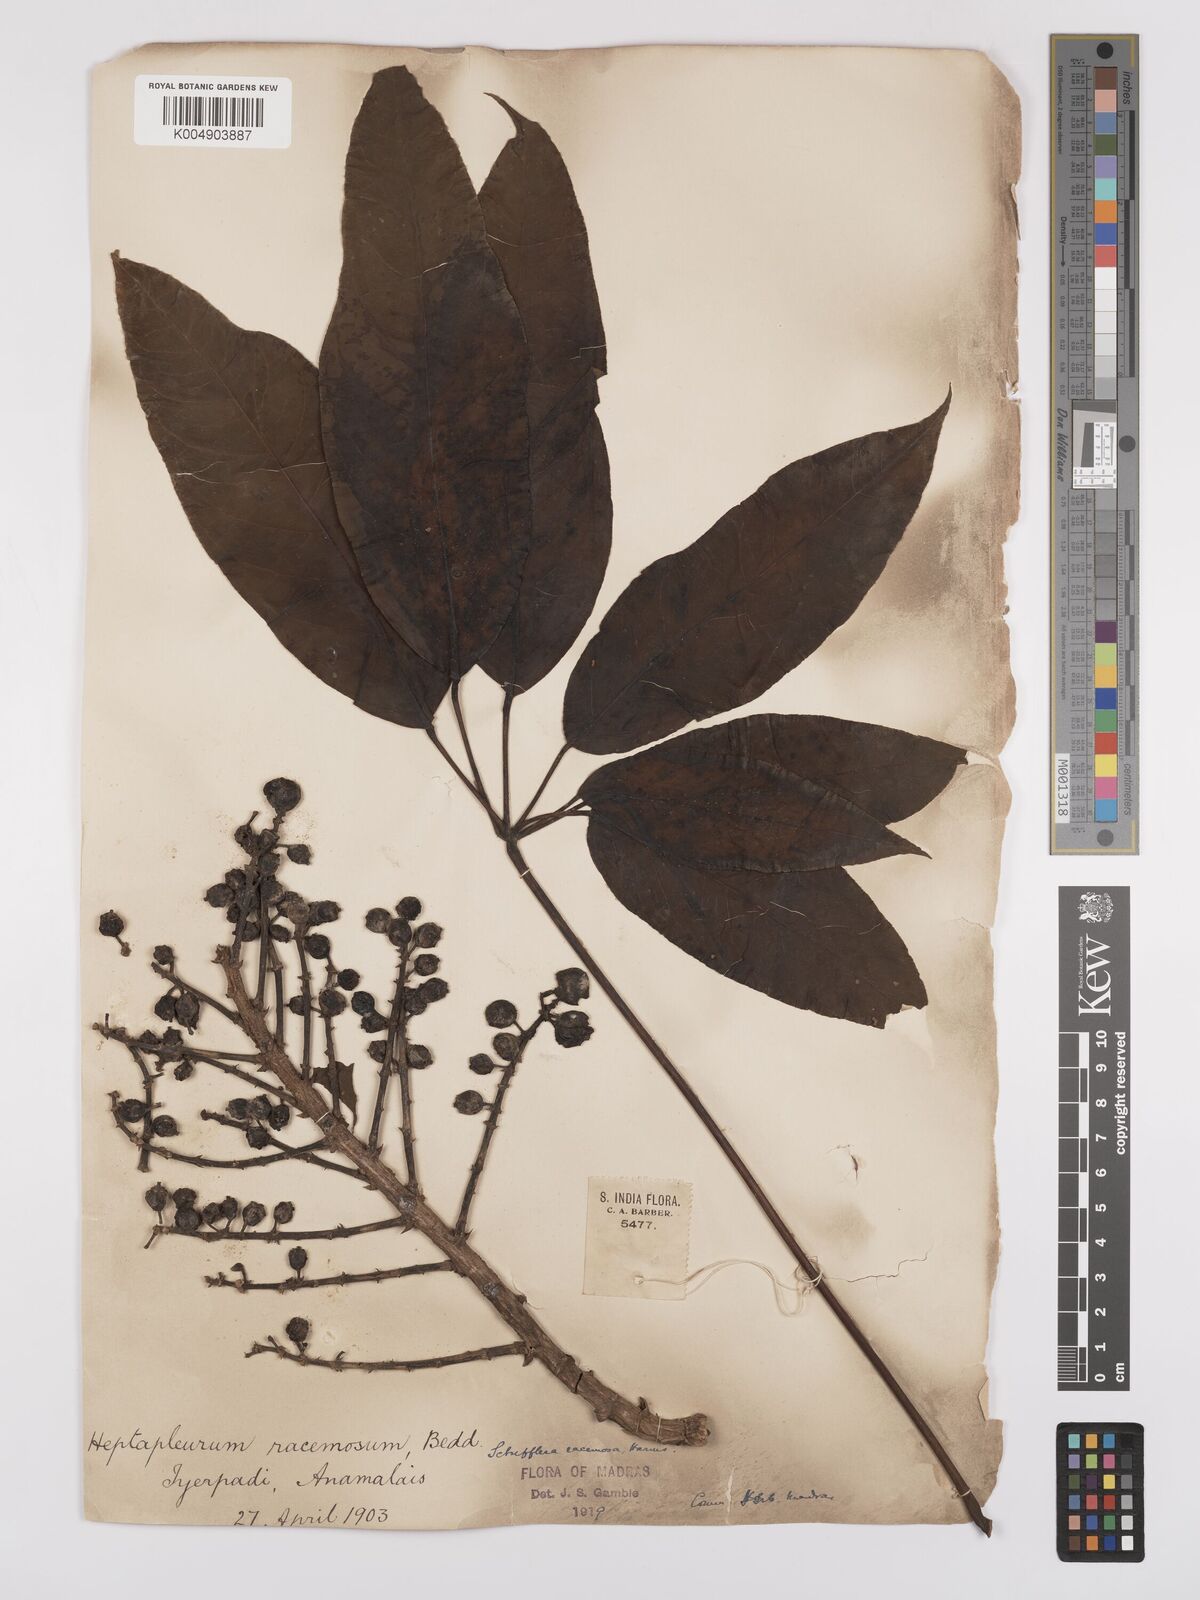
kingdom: Plantae
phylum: Tracheophyta
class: Magnoliopsida
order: Apiales
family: Araliaceae
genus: Heptapleurum
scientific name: Heptapleurum
